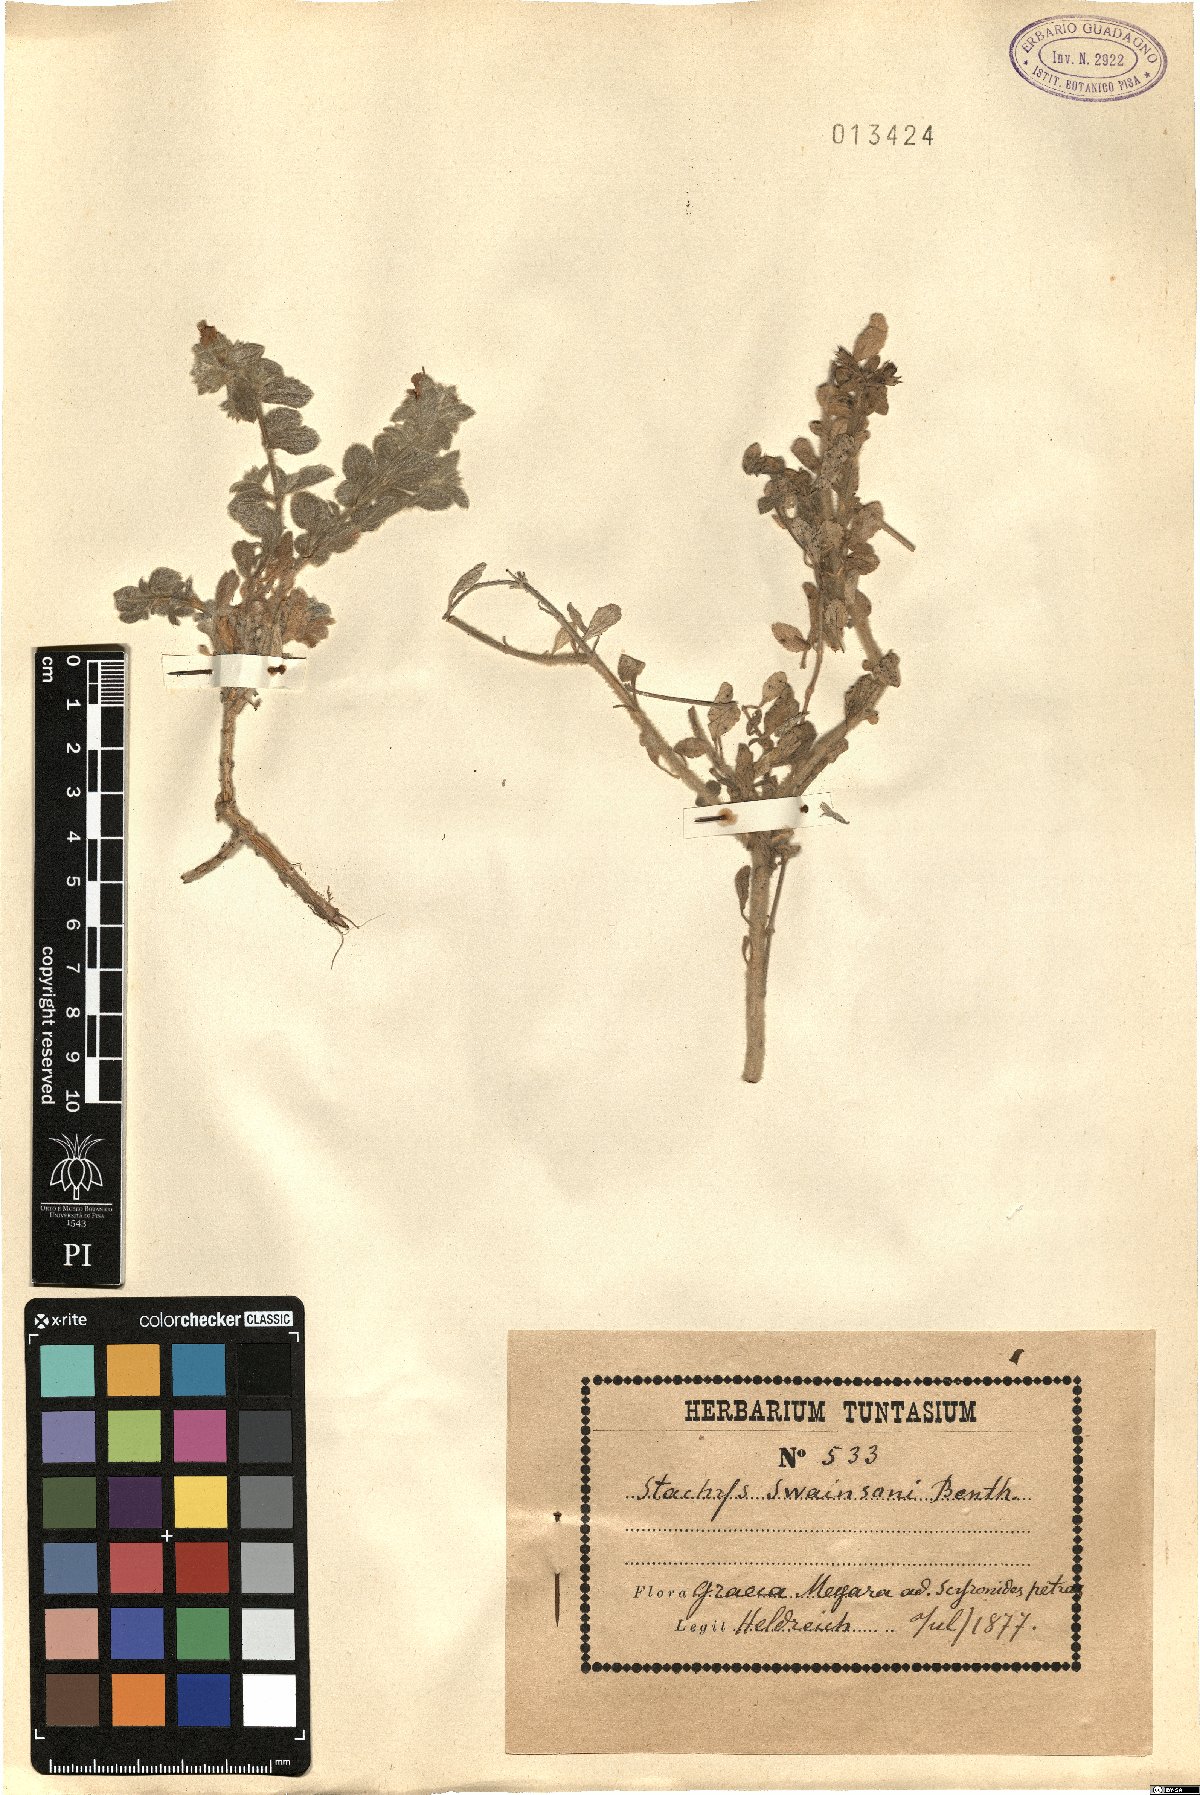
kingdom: Plantae
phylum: Tracheophyta
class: Magnoliopsida
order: Lamiales
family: Lamiaceae
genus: Stachys
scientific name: Stachys swainsonii
